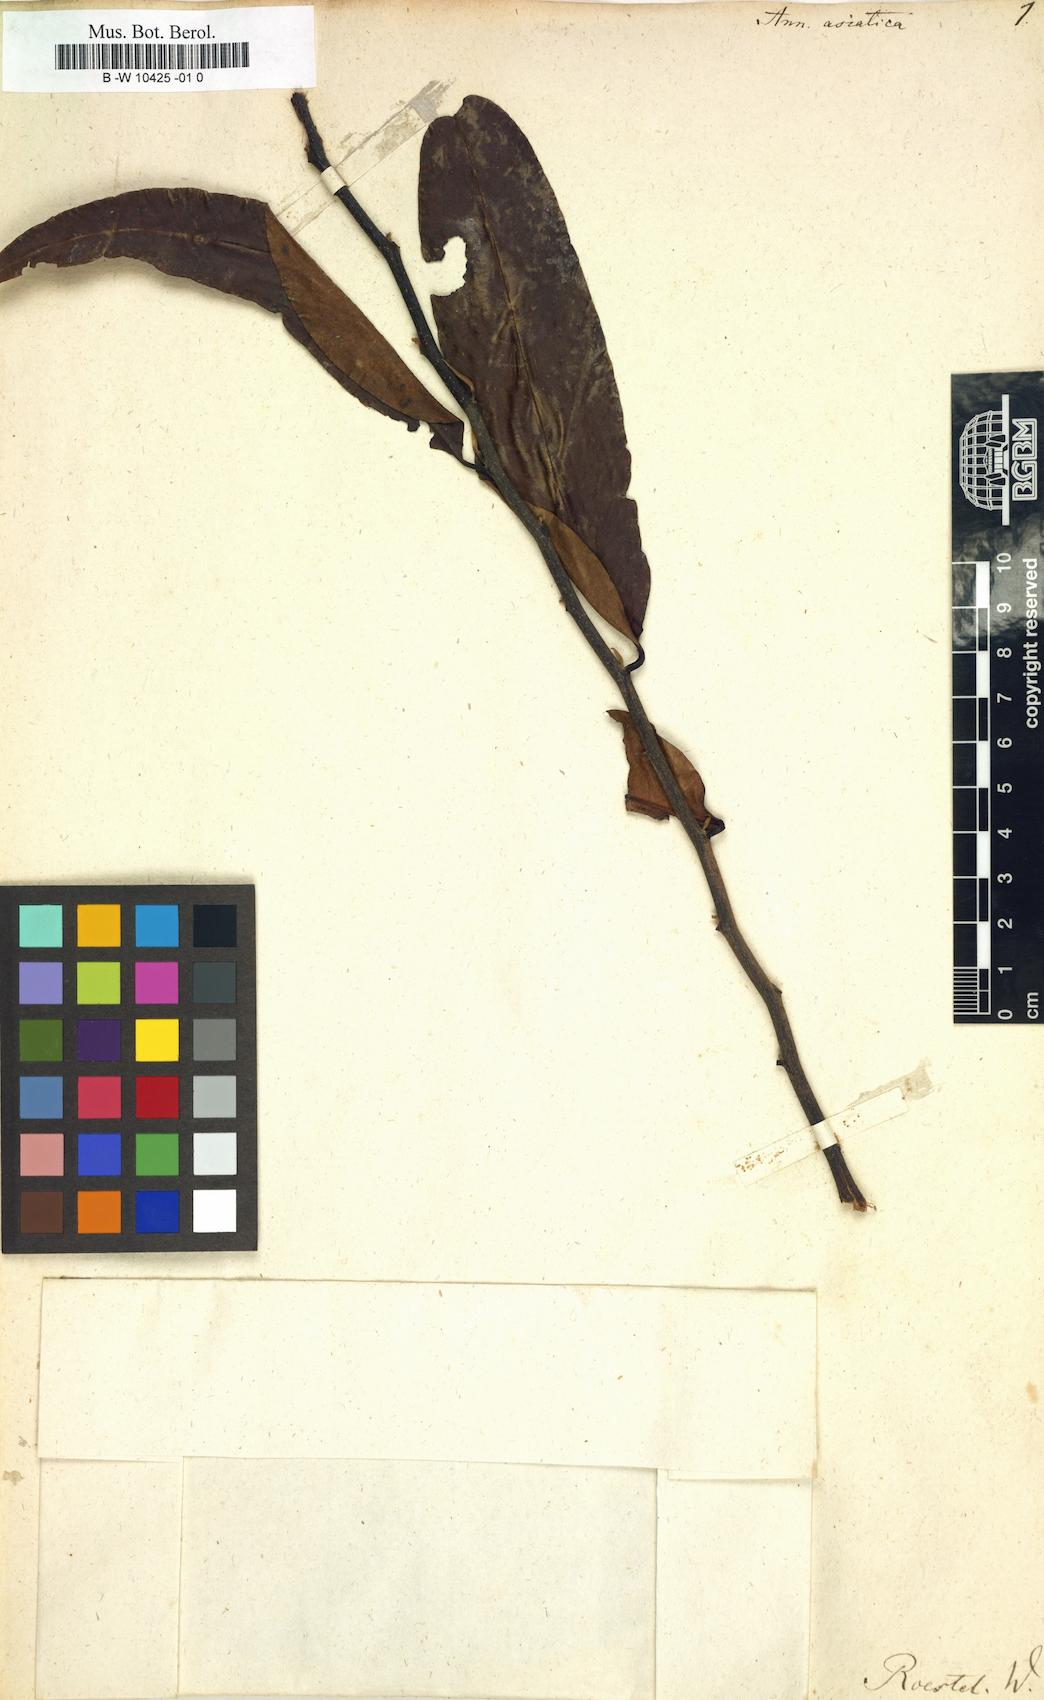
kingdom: Plantae
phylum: Tracheophyta
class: Magnoliopsida
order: Magnoliales
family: Annonaceae
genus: Annona
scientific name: Annona squamosa
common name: Custard-apple
